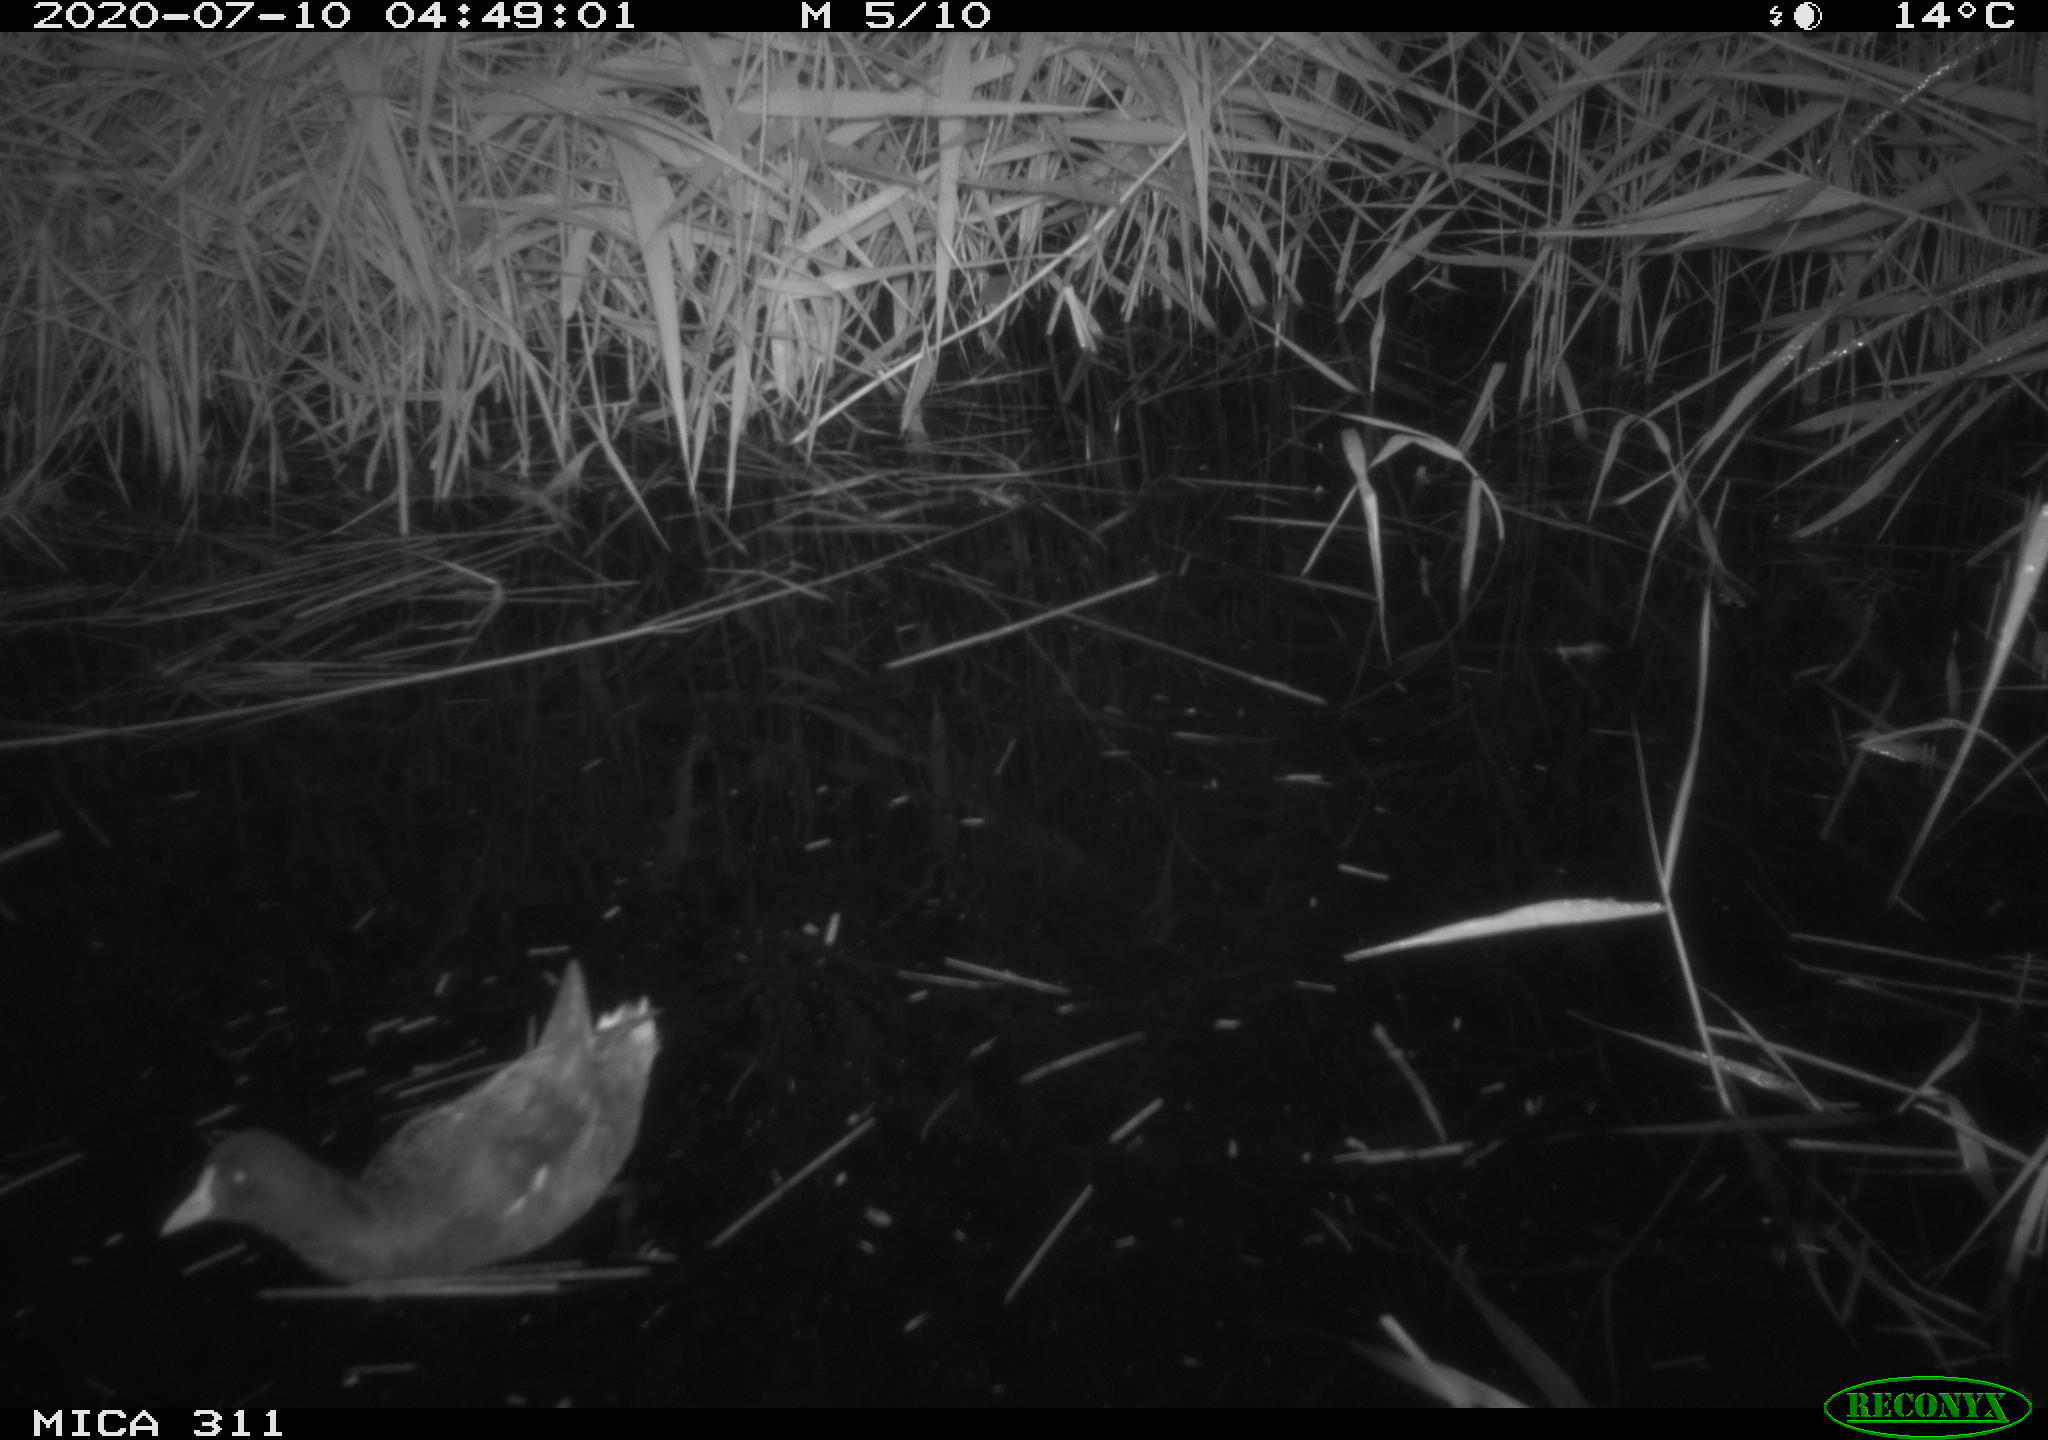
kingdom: Animalia
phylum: Chordata
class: Aves
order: Anseriformes
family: Anatidae
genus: Anas
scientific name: Anas platyrhynchos
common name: Mallard
